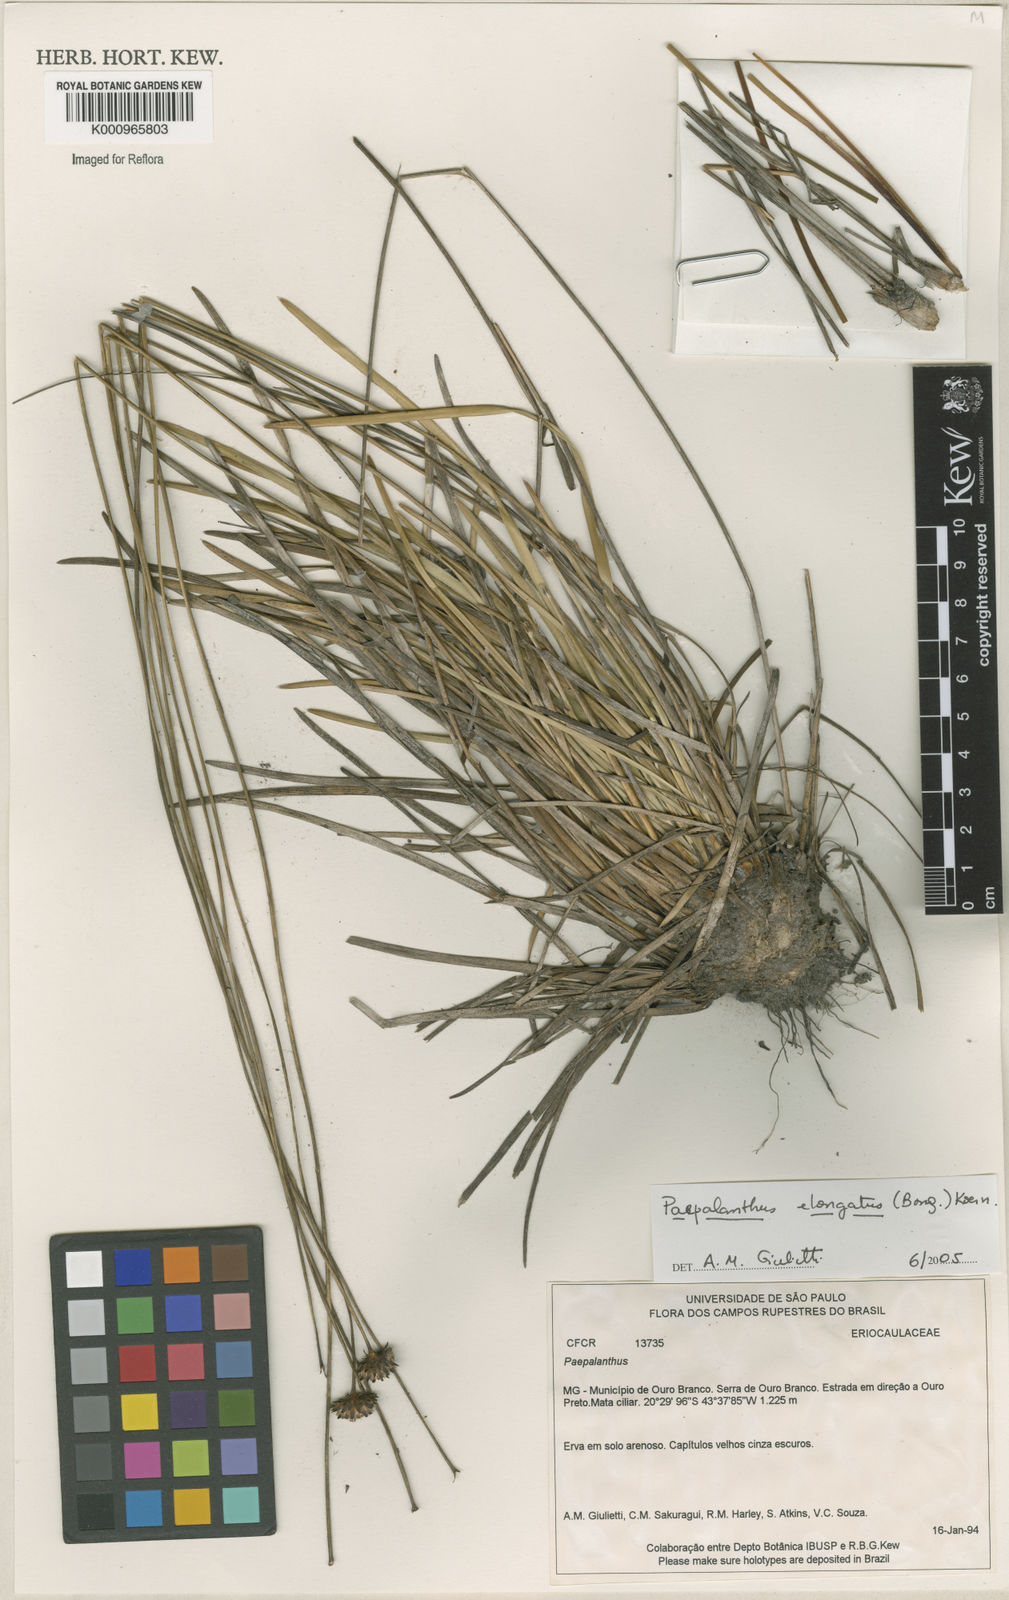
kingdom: Plantae
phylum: Tracheophyta
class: Liliopsida
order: Poales
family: Eriocaulaceae
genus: Paepalanthus
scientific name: Paepalanthus
